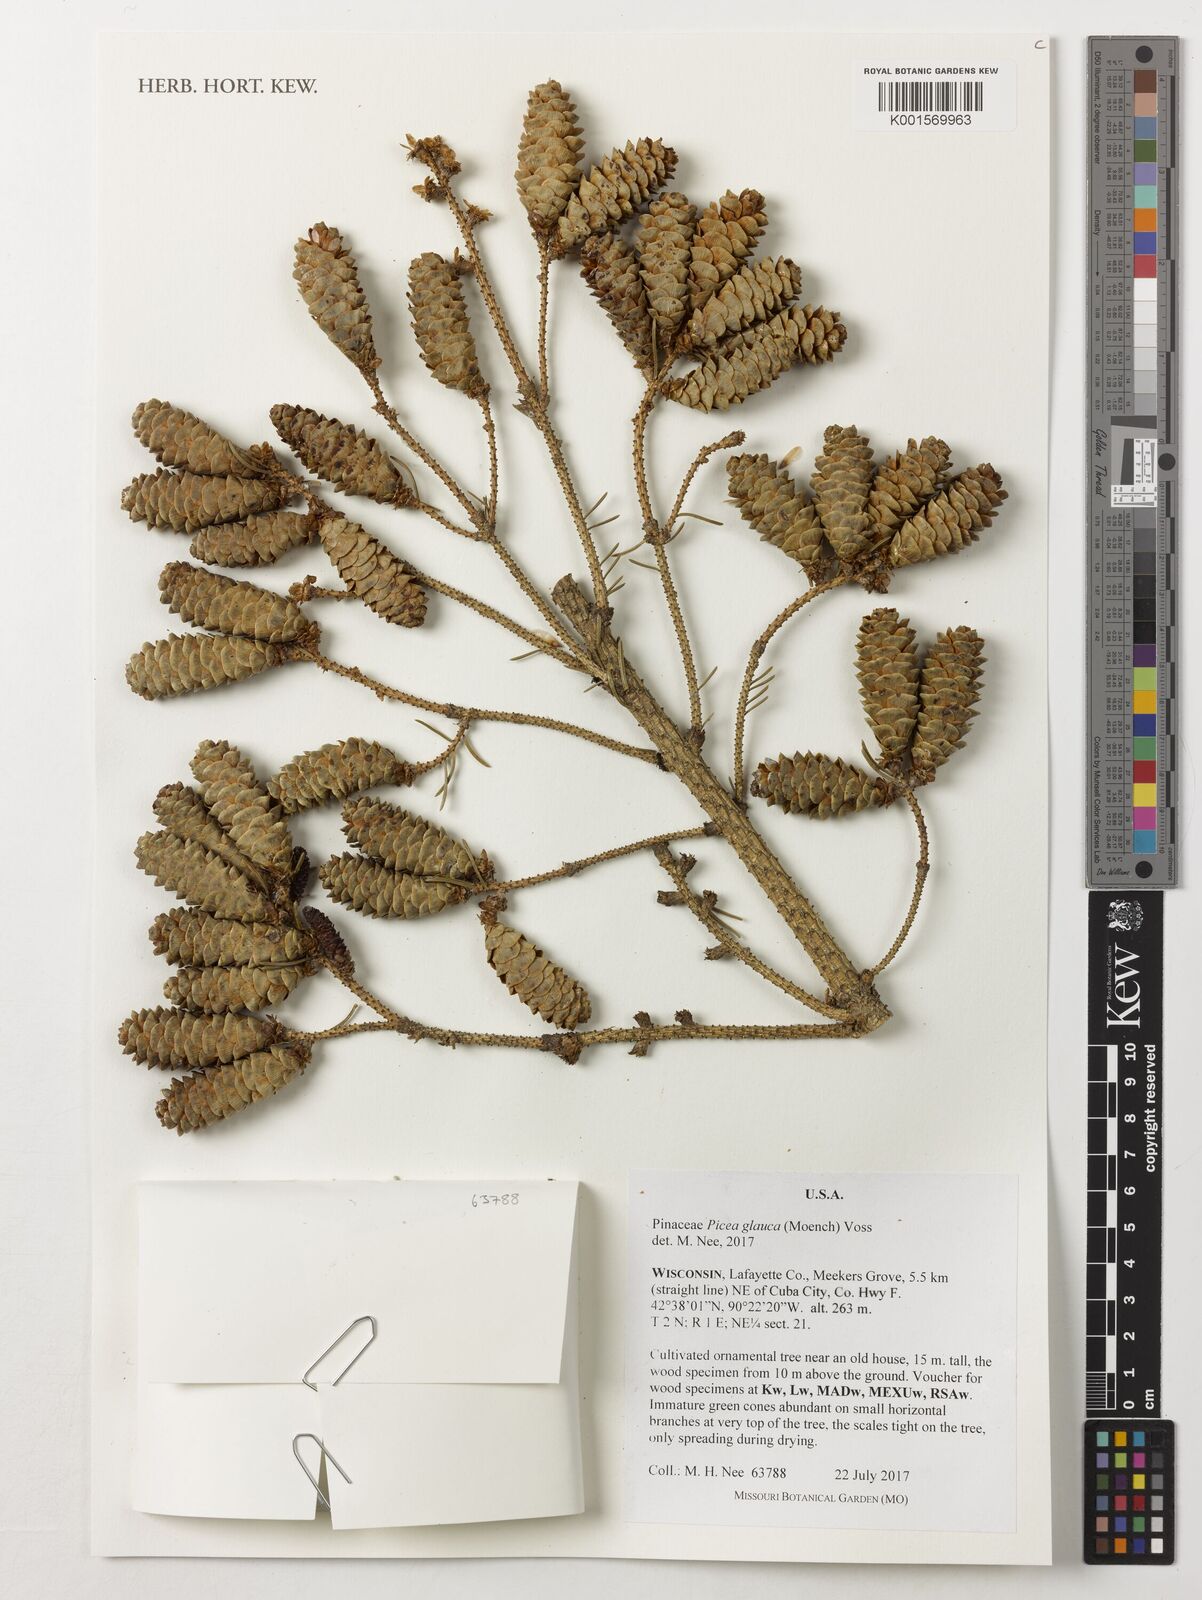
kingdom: Plantae
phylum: Tracheophyta
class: Pinopsida
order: Pinales
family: Pinaceae
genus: Picea
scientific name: Picea glauca
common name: White spruce
